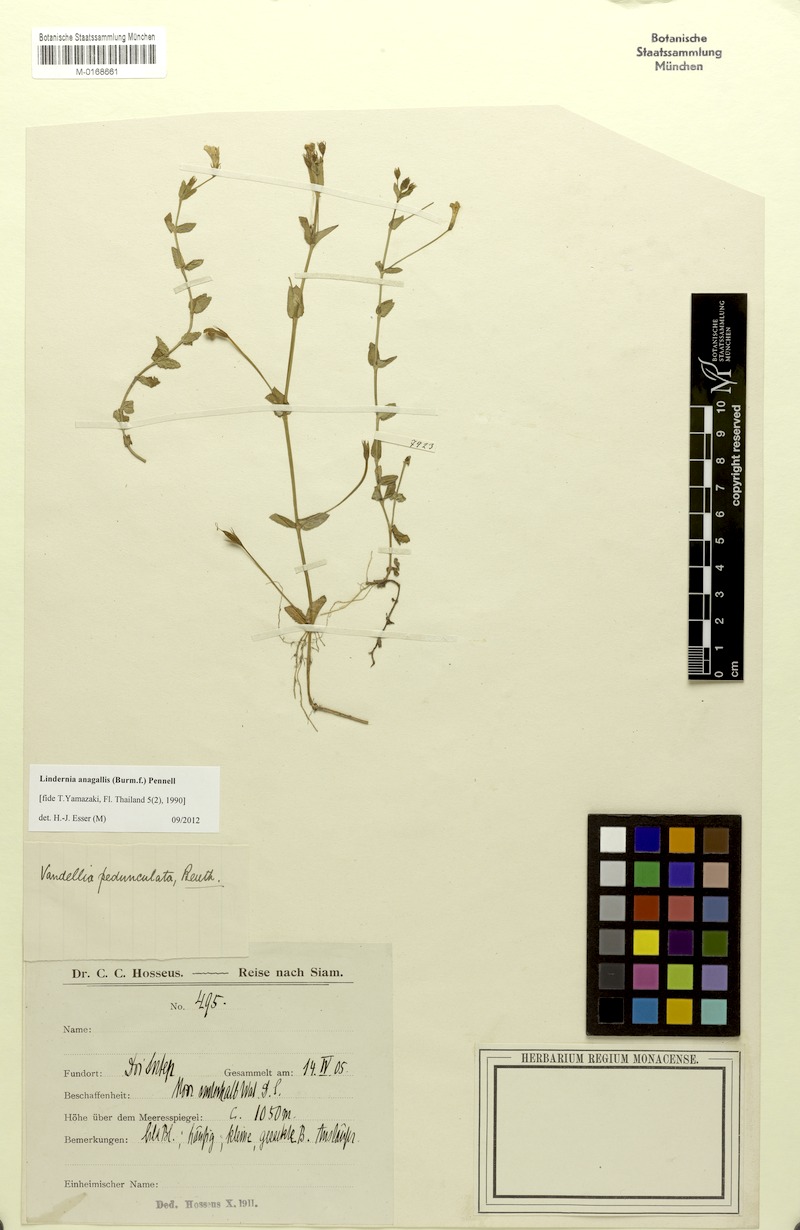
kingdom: Plantae
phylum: Tracheophyta
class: Magnoliopsida
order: Lamiales
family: Linderniaceae
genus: Torenia
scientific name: Torenia anagallis
